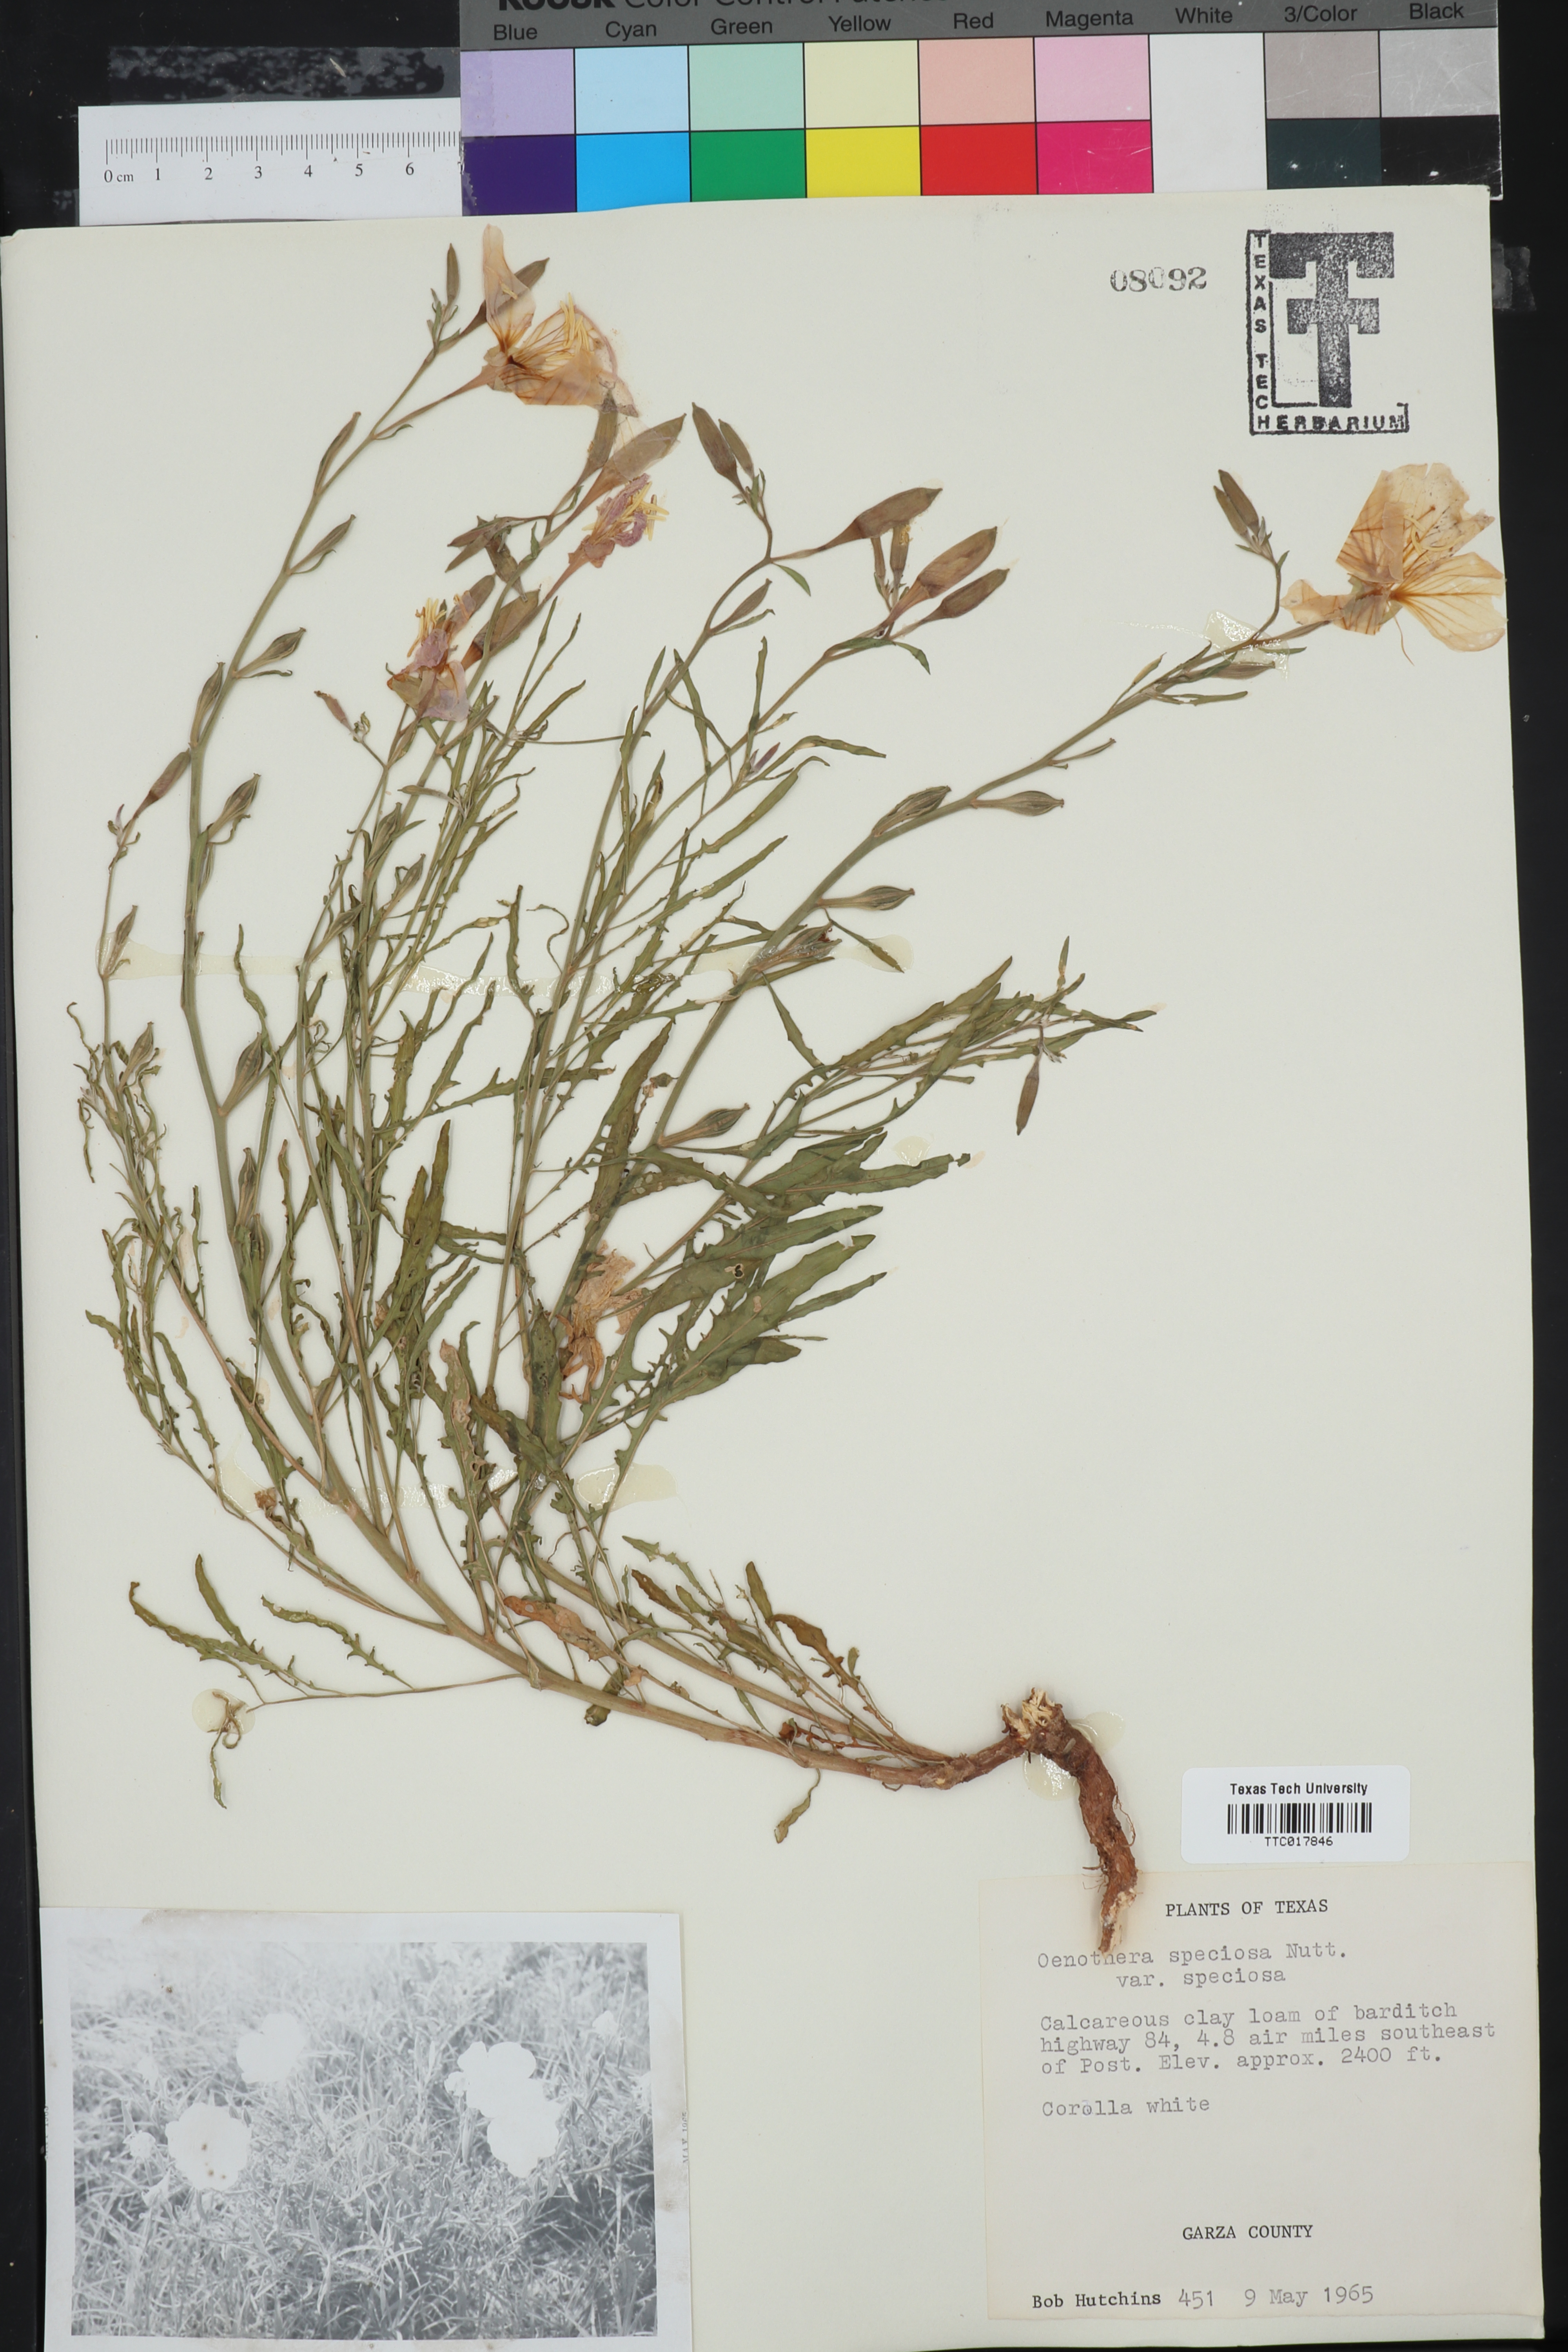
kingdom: Plantae
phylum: Tracheophyta
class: Magnoliopsida
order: Myrtales
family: Onagraceae
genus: Oenothera
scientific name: Oenothera speciosa
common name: White evening-primrose
